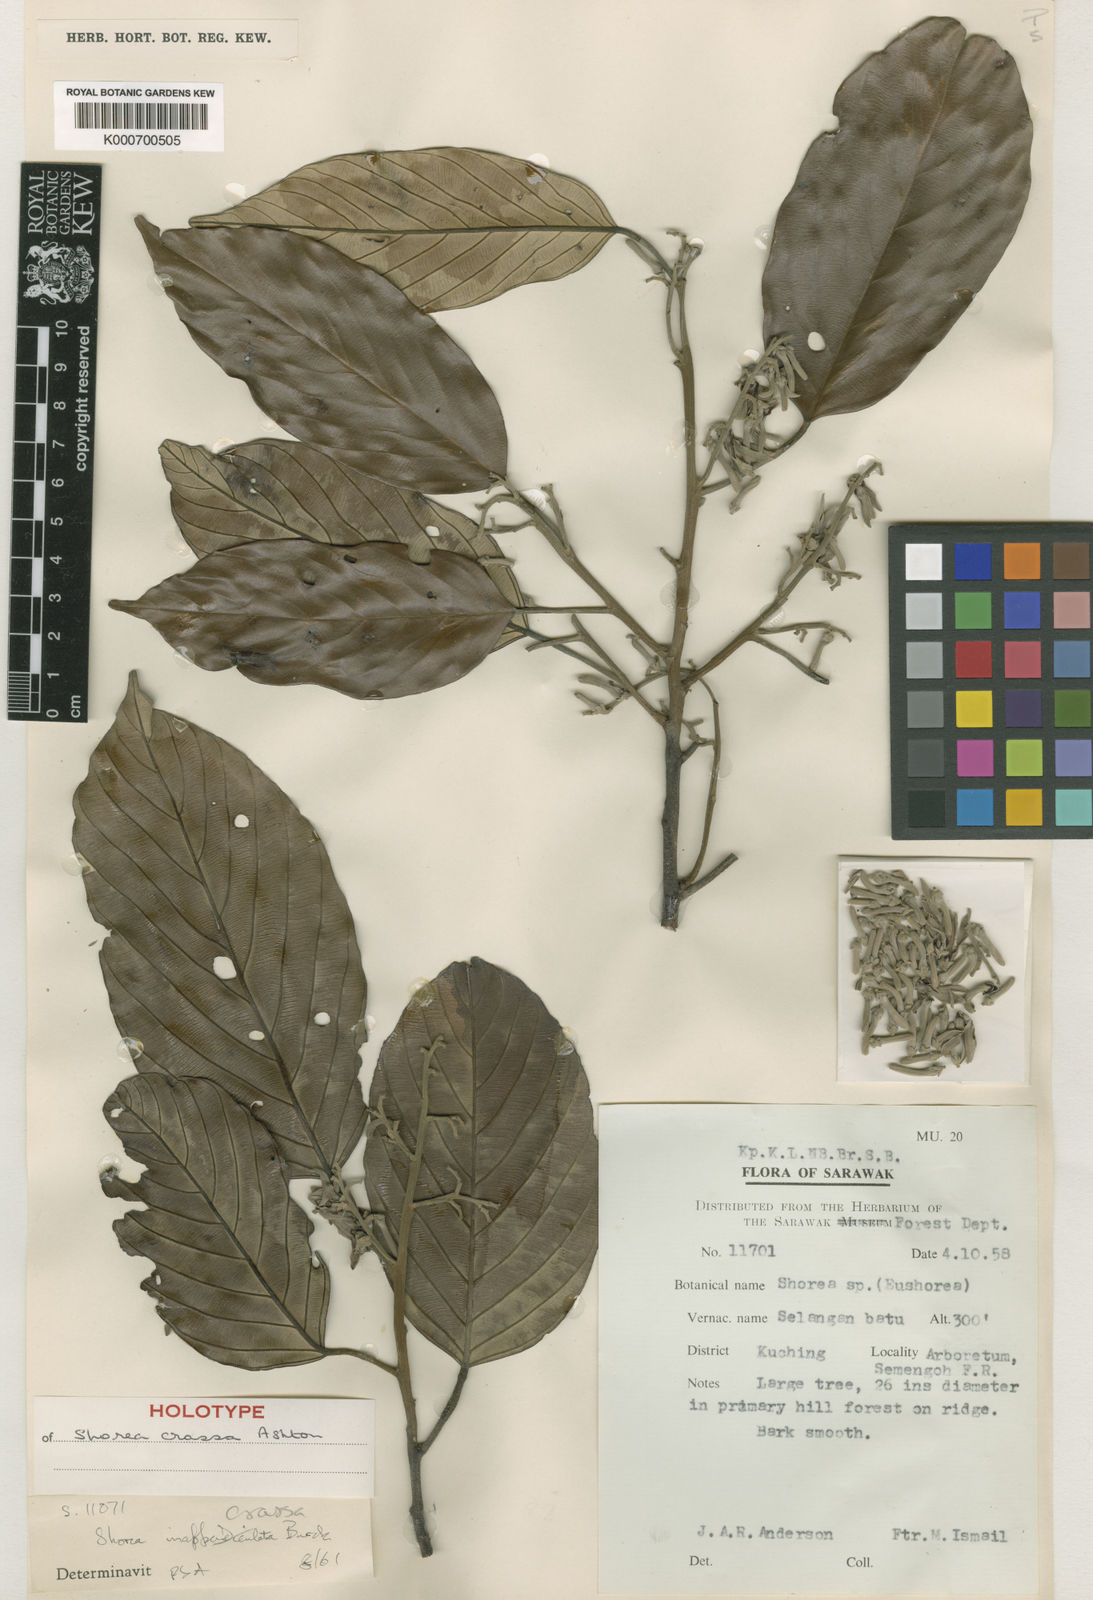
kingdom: Plantae
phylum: Tracheophyta
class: Magnoliopsida
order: Malvales
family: Dipterocarpaceae
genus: Shorea
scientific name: Shorea crassa
